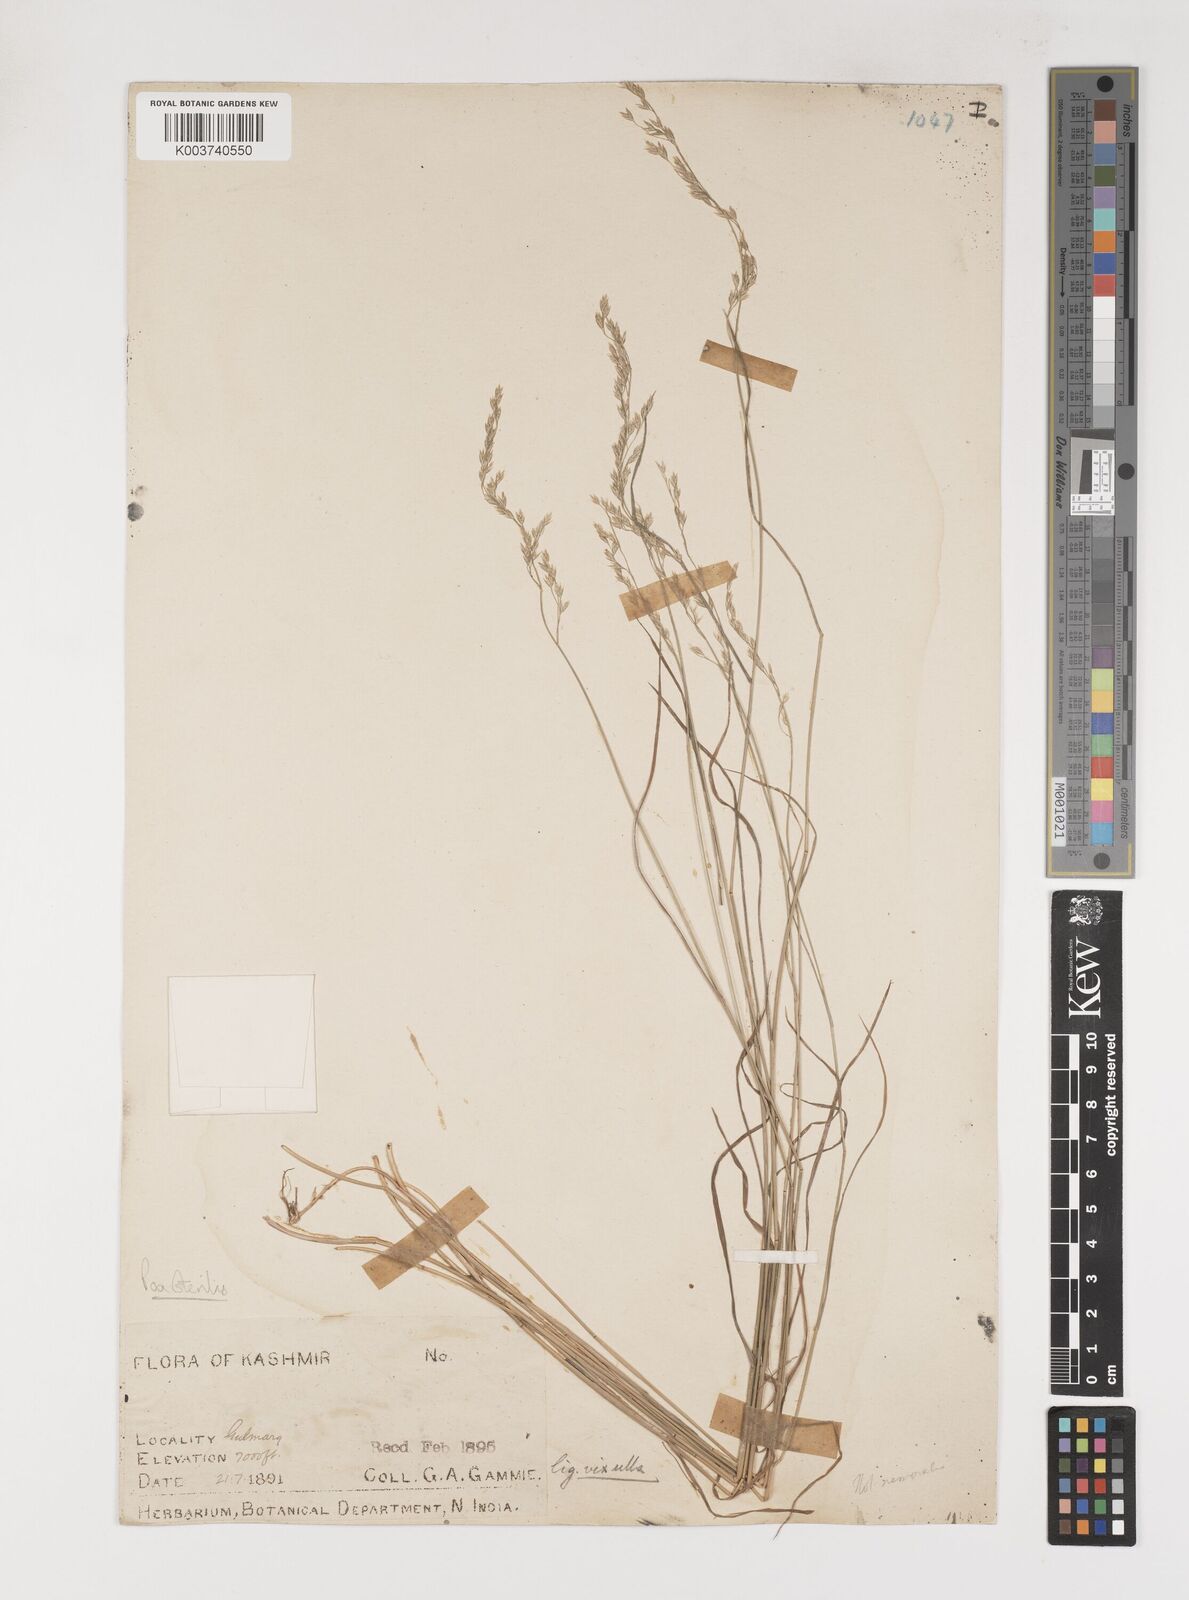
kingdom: Plantae
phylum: Tracheophyta
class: Liliopsida
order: Poales
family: Poaceae
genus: Poa
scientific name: Poa sterilis
